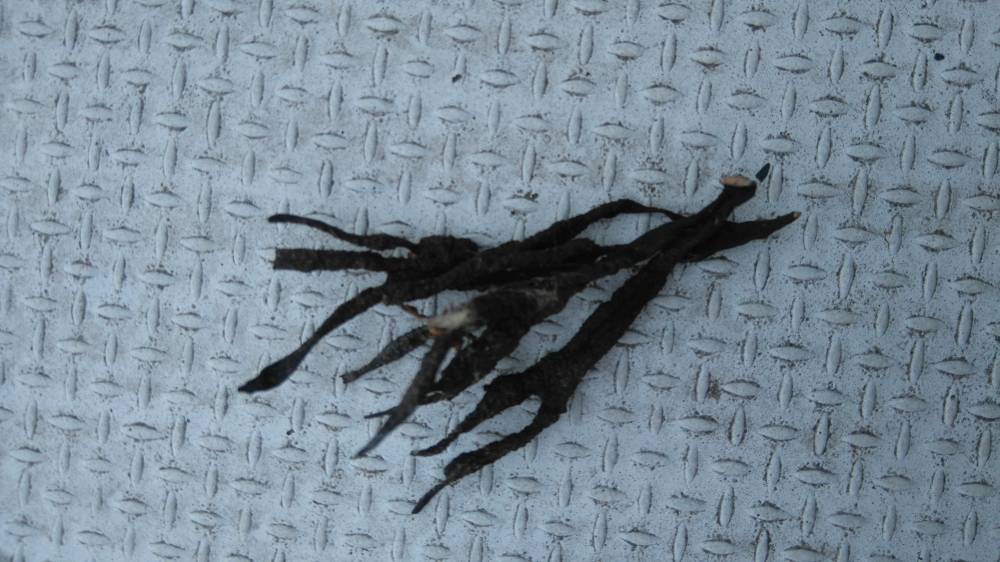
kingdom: Fungi
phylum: Ascomycota
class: Sordariomycetes
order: Xylariales
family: Xylariaceae
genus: Xylaria
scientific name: Xylaria hypoxylon
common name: grenet stødsvamp
